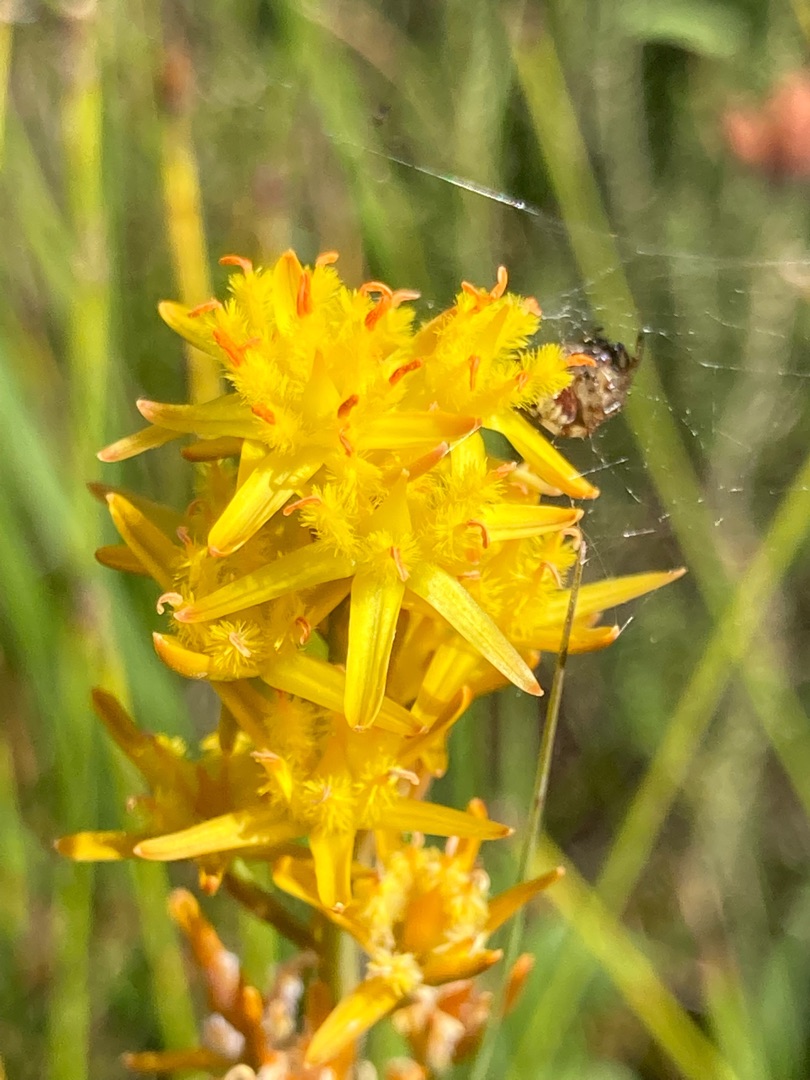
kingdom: Plantae
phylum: Tracheophyta
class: Liliopsida
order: Dioscoreales
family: Nartheciaceae
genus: Narthecium
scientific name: Narthecium ossifragum
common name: Benbræk
